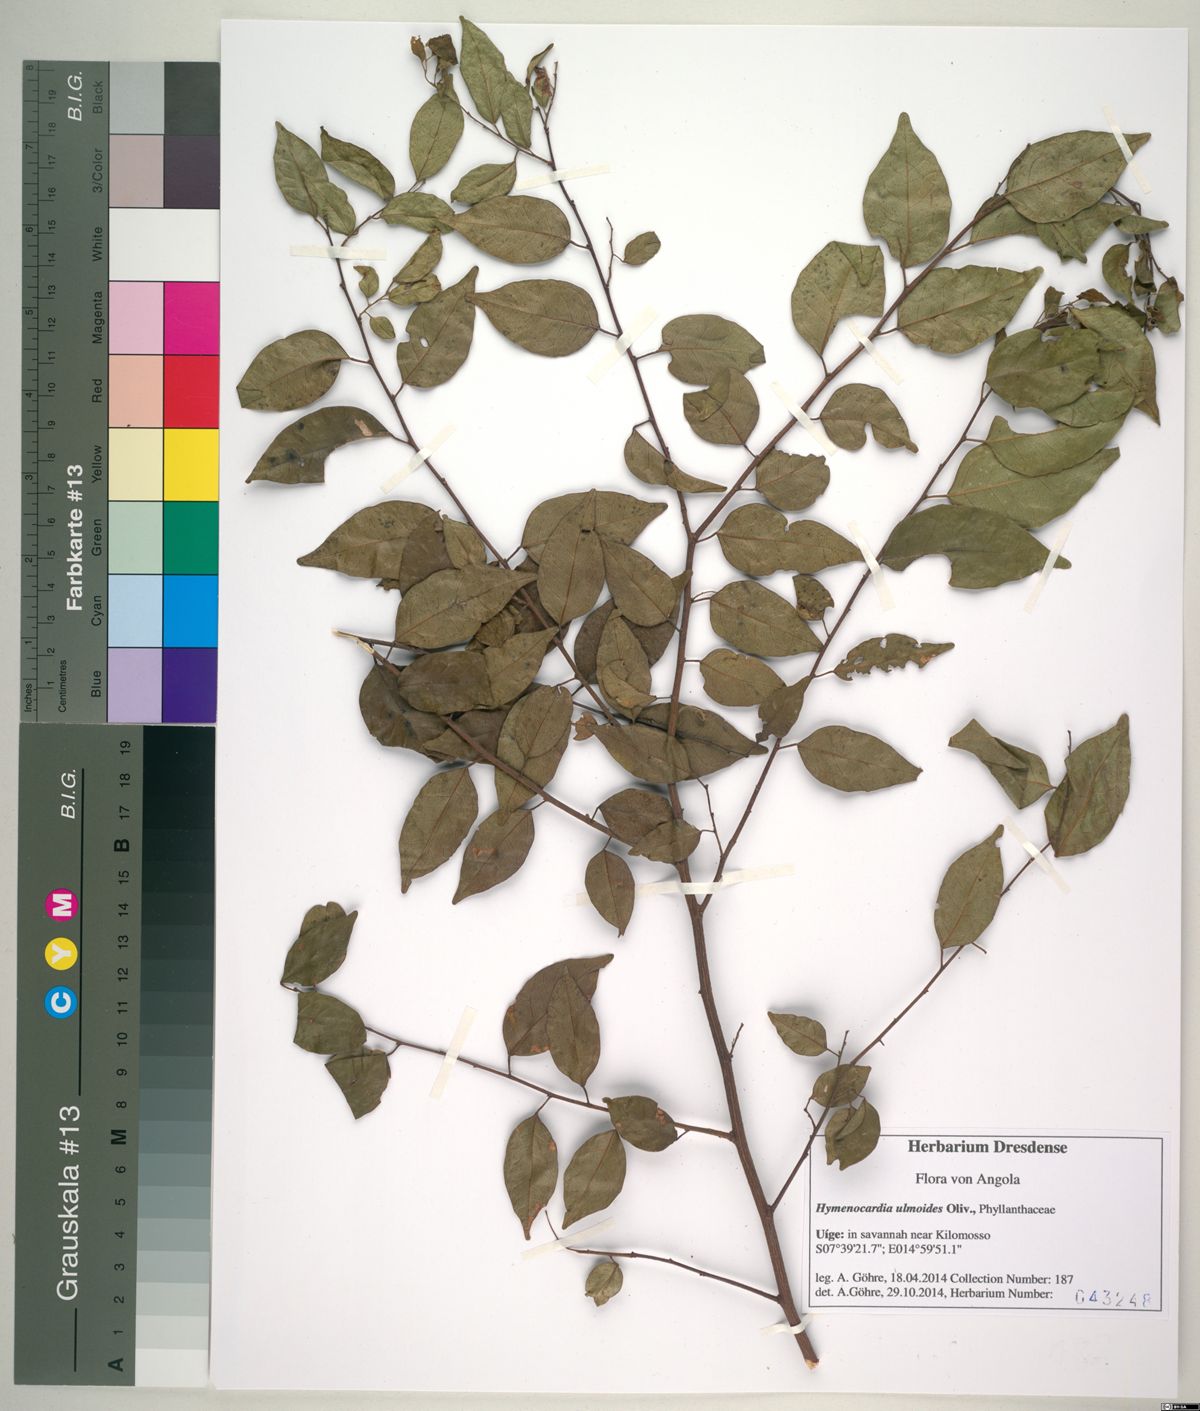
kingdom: Plantae
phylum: Tracheophyta
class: Magnoliopsida
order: Malpighiales
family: Phyllanthaceae
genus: Hymenocardia
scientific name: Hymenocardia ulmoides
